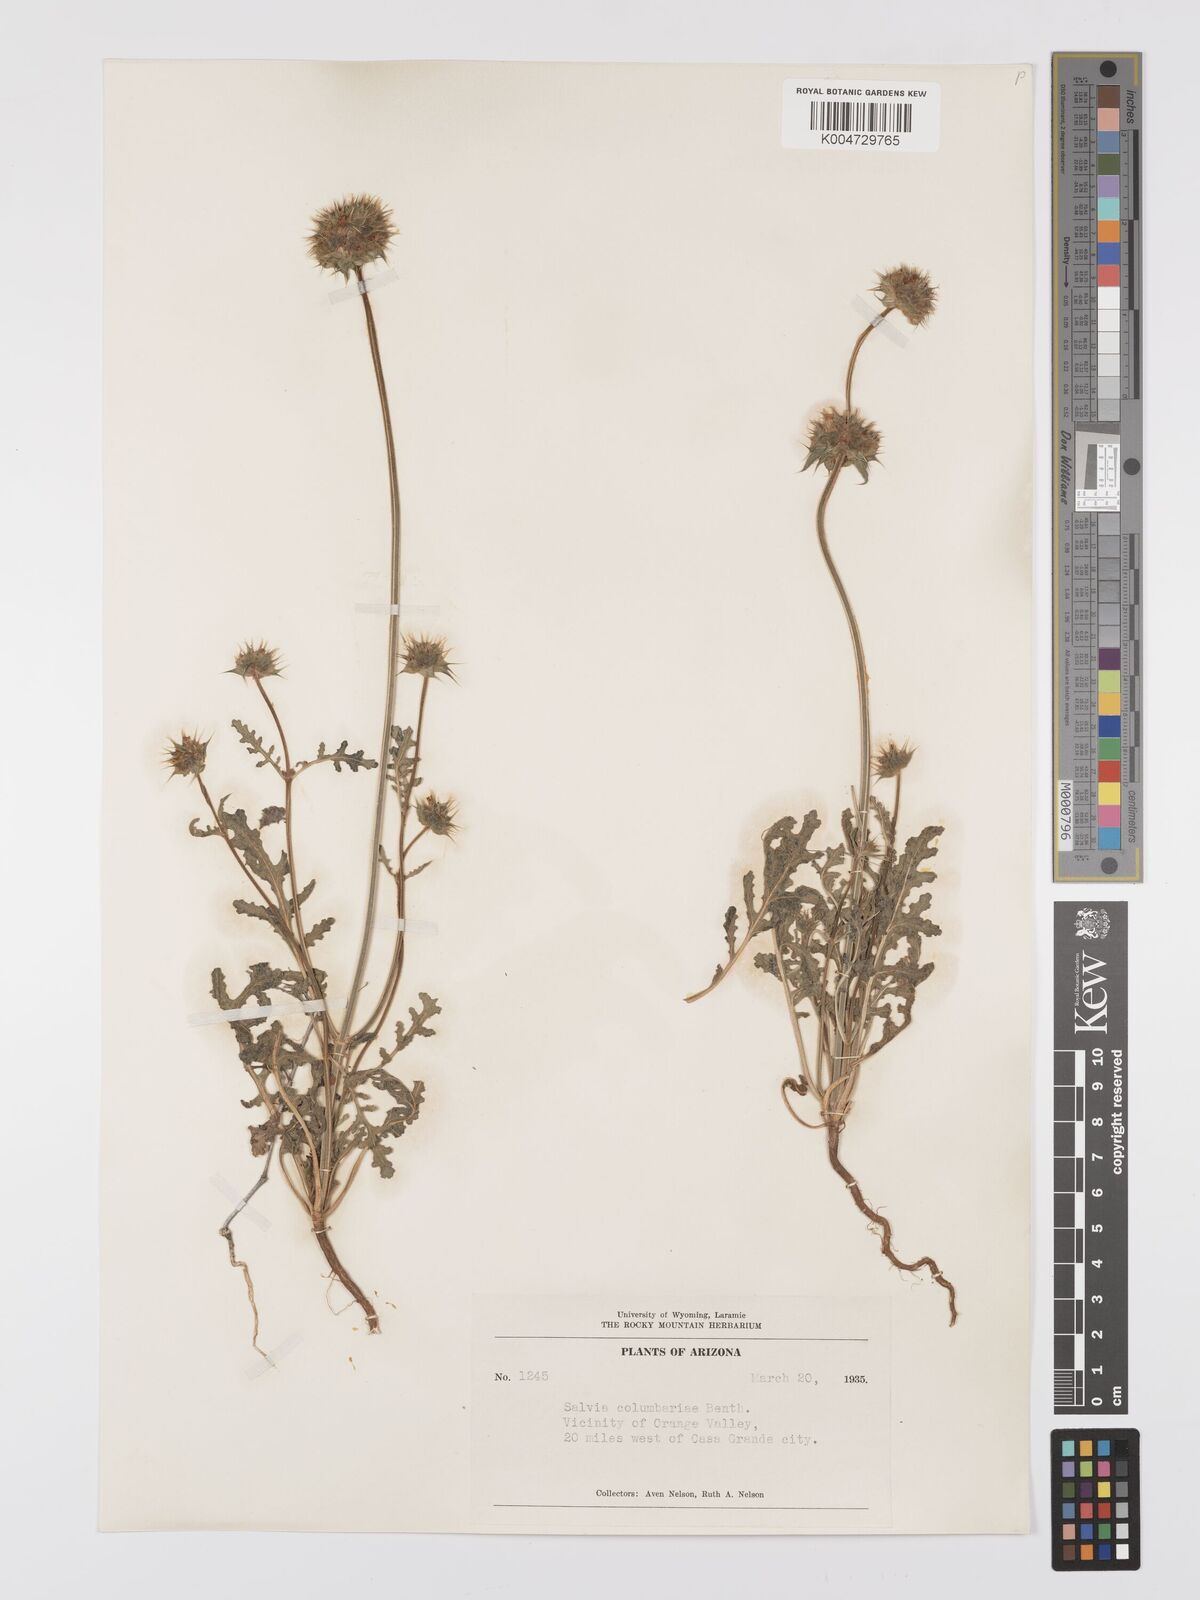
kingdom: Plantae
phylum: Tracheophyta
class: Magnoliopsida
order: Lamiales
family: Lamiaceae
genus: Salvia
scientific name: Salvia columbariae
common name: Chia
